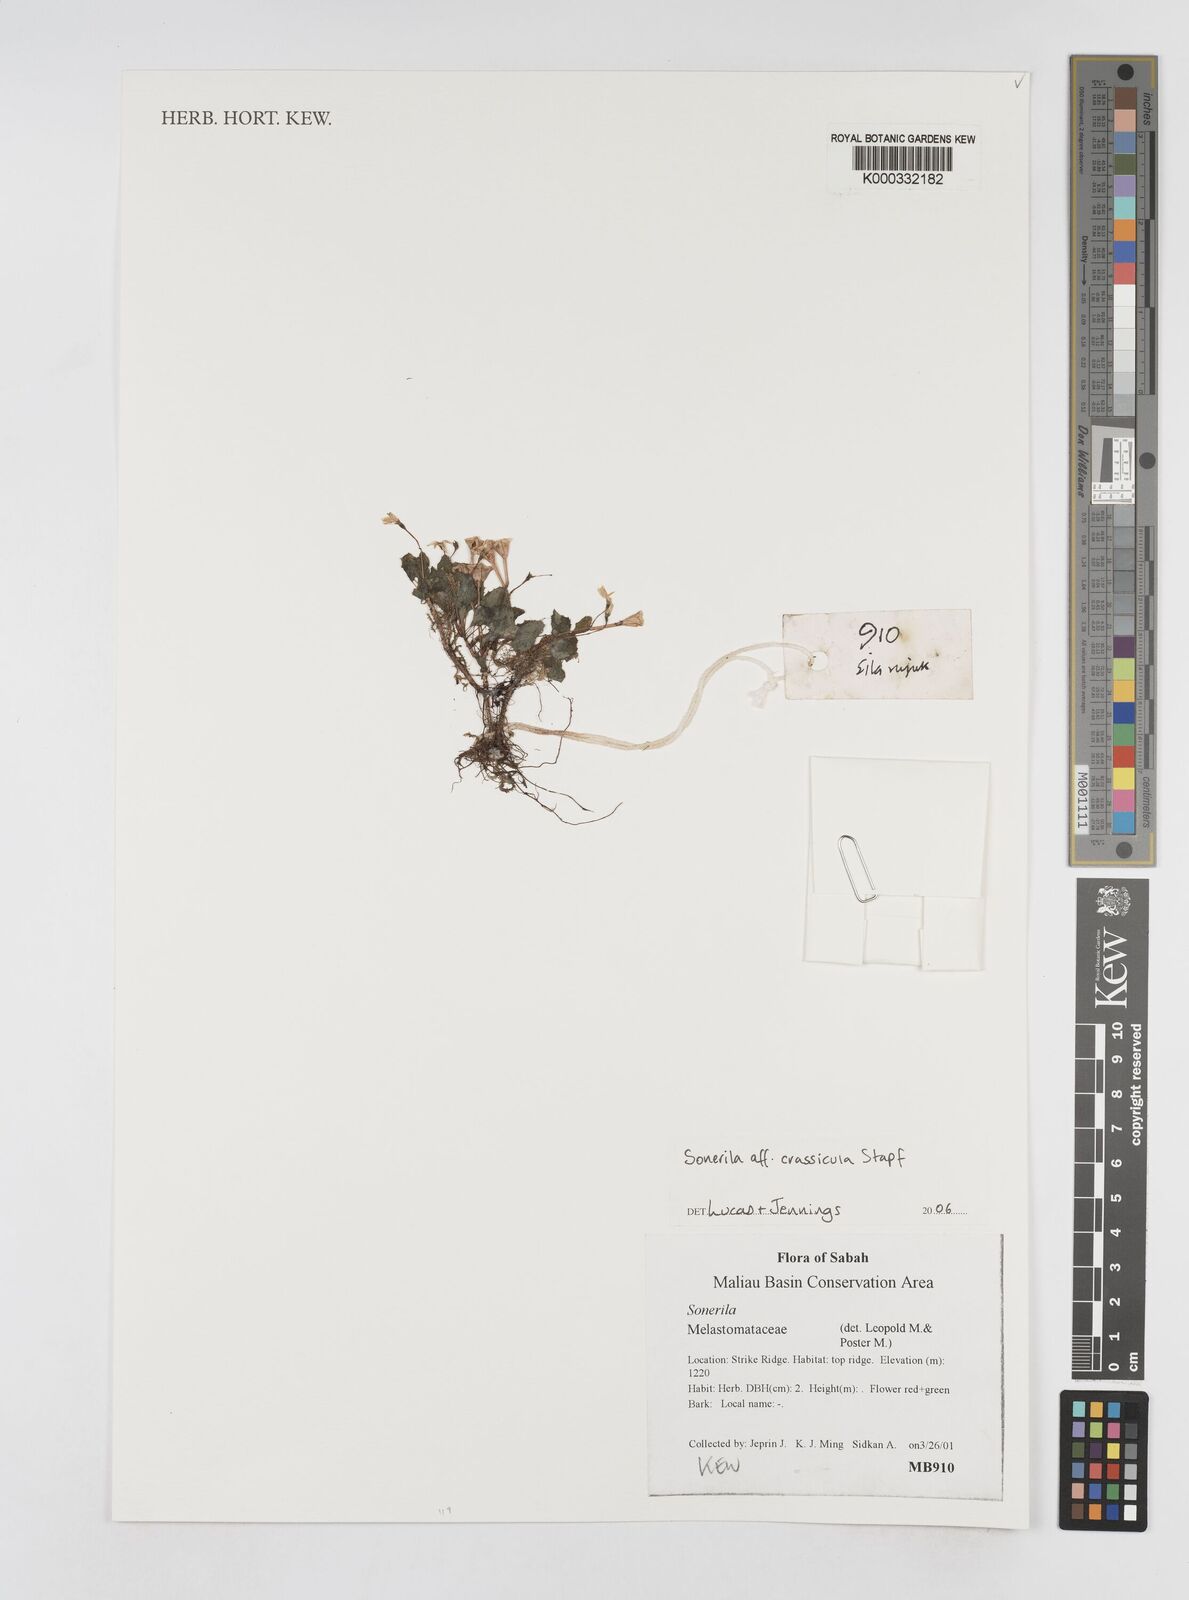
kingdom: Plantae
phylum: Tracheophyta
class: Magnoliopsida
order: Myrtales
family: Melastomataceae
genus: Sonerila
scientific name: Sonerila
